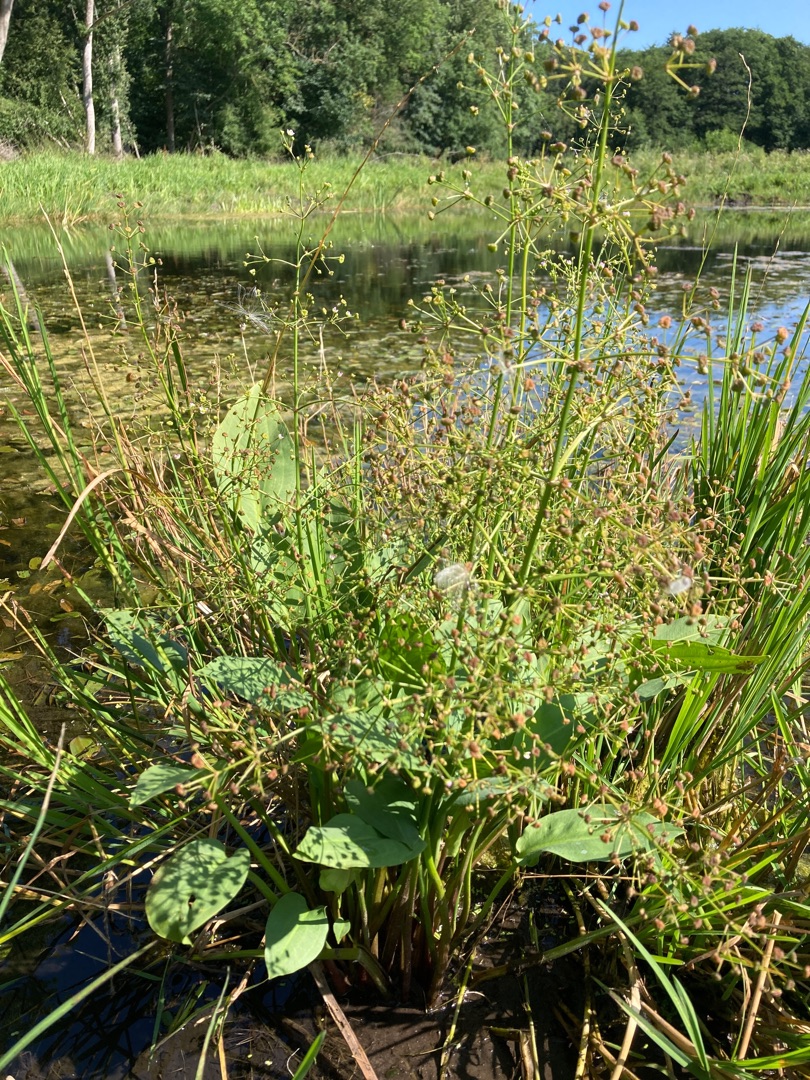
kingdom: Plantae
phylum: Tracheophyta
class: Liliopsida
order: Alismatales
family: Alismataceae
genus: Alisma
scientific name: Alisma plantago-aquatica
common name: Vejbred-skeblad
